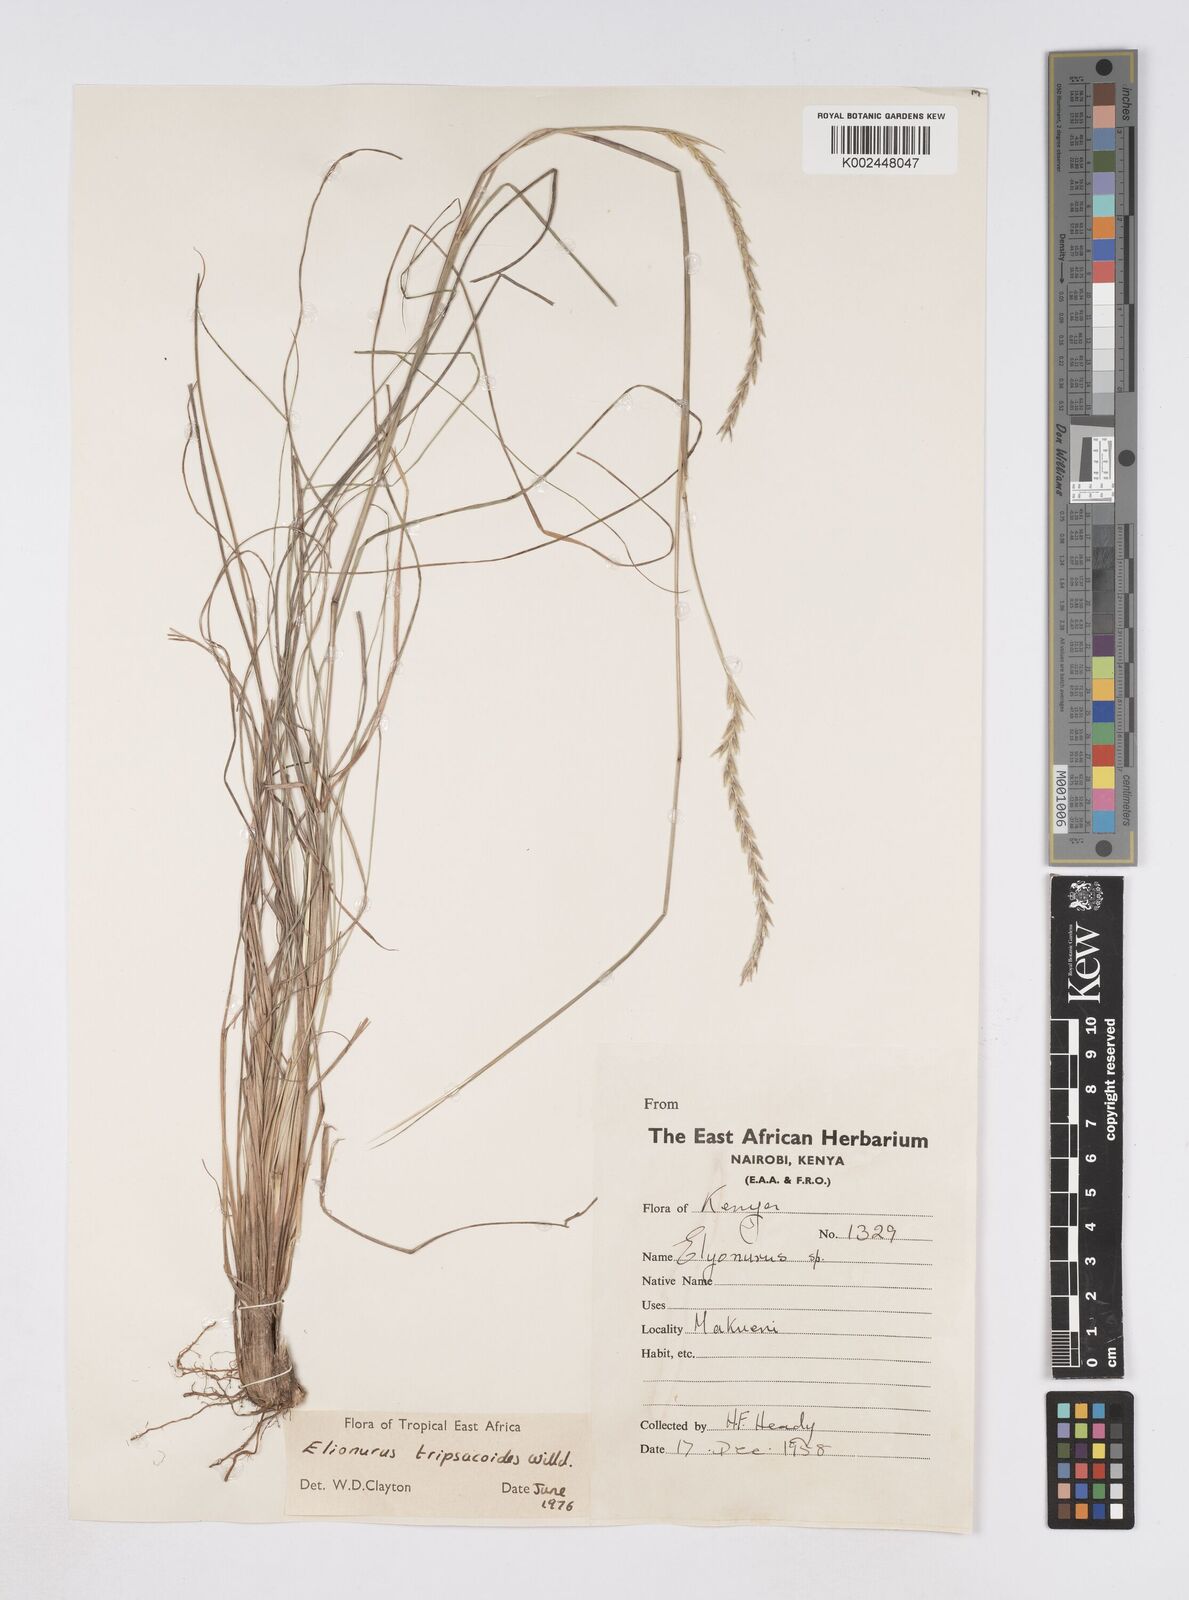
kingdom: Plantae
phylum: Tracheophyta
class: Liliopsida
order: Poales
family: Poaceae
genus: Elionurus
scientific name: Elionurus tripsacoides
